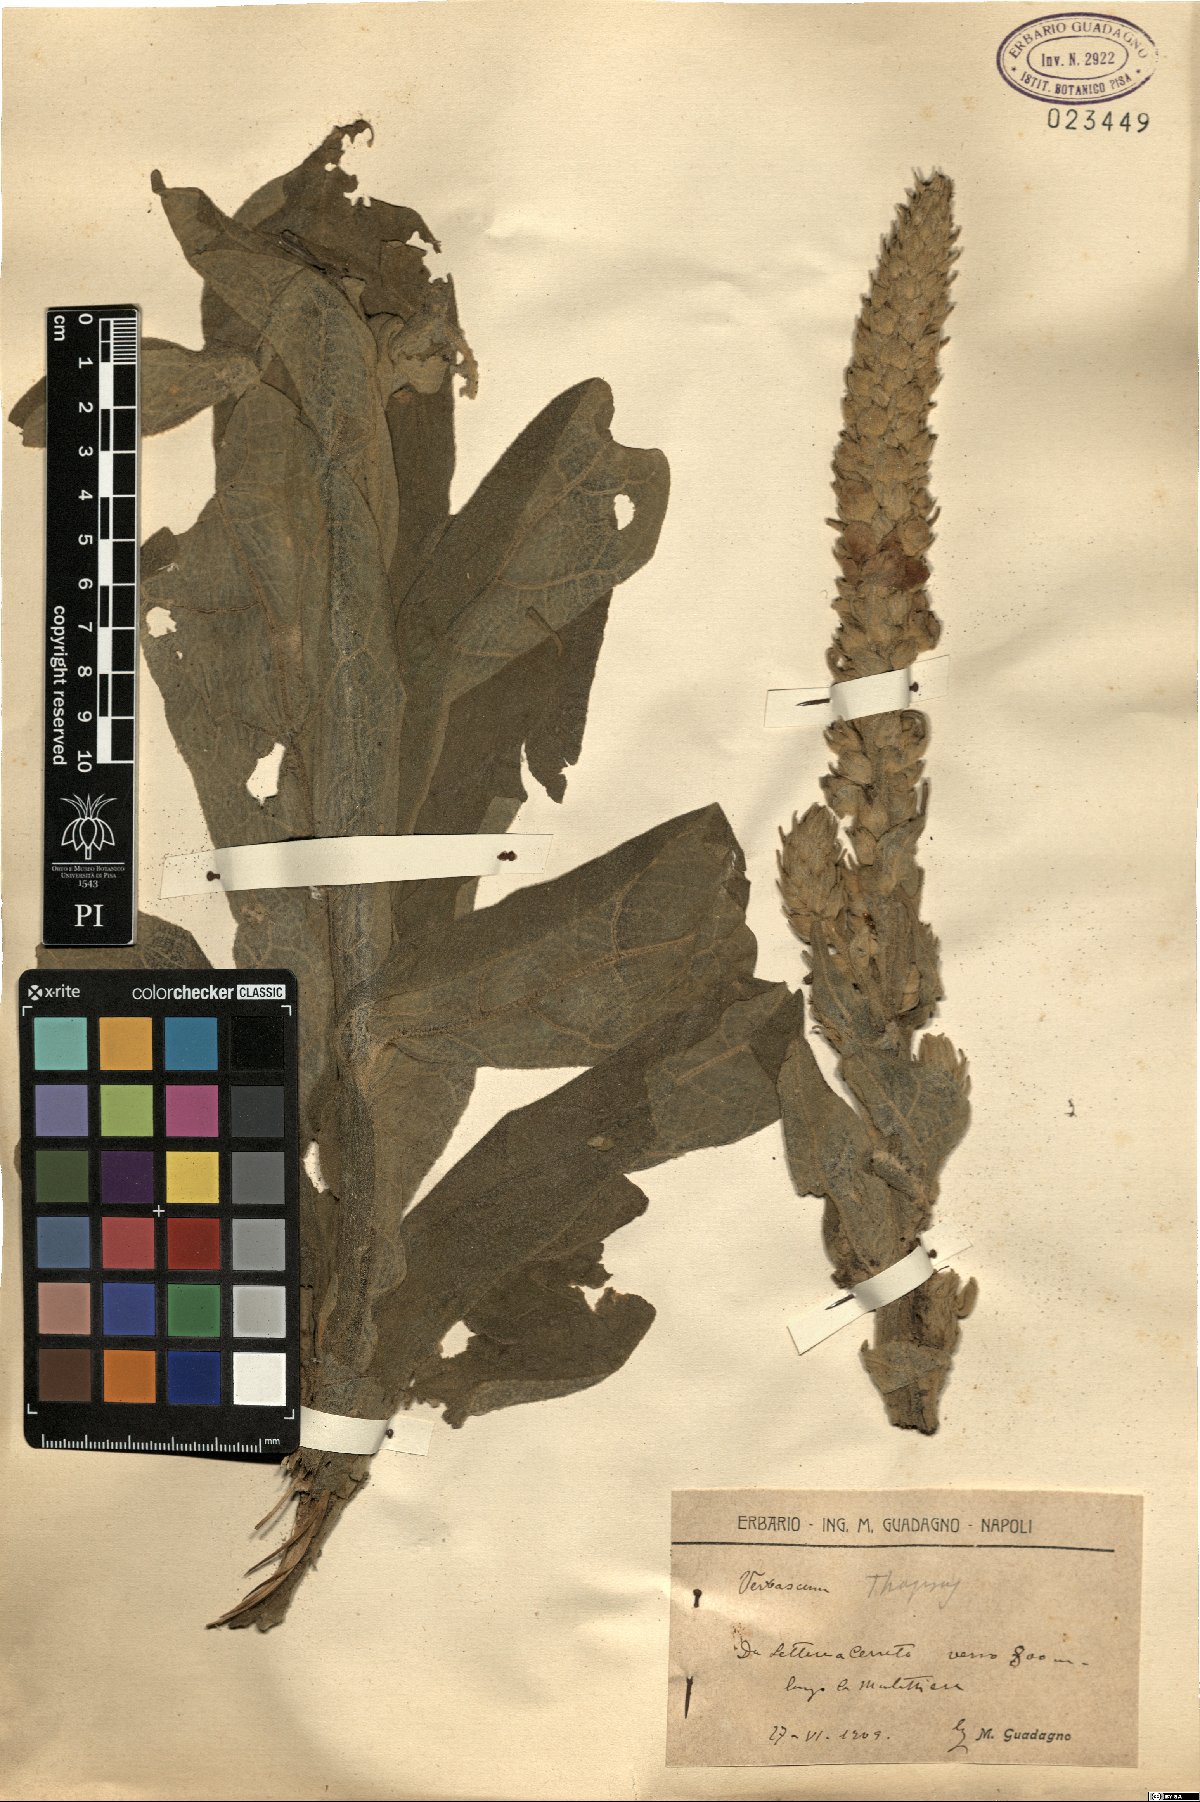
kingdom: Plantae
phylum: Tracheophyta
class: Magnoliopsida
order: Lamiales
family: Scrophulariaceae
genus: Verbascum
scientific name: Verbascum thapsus
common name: Common mullein
